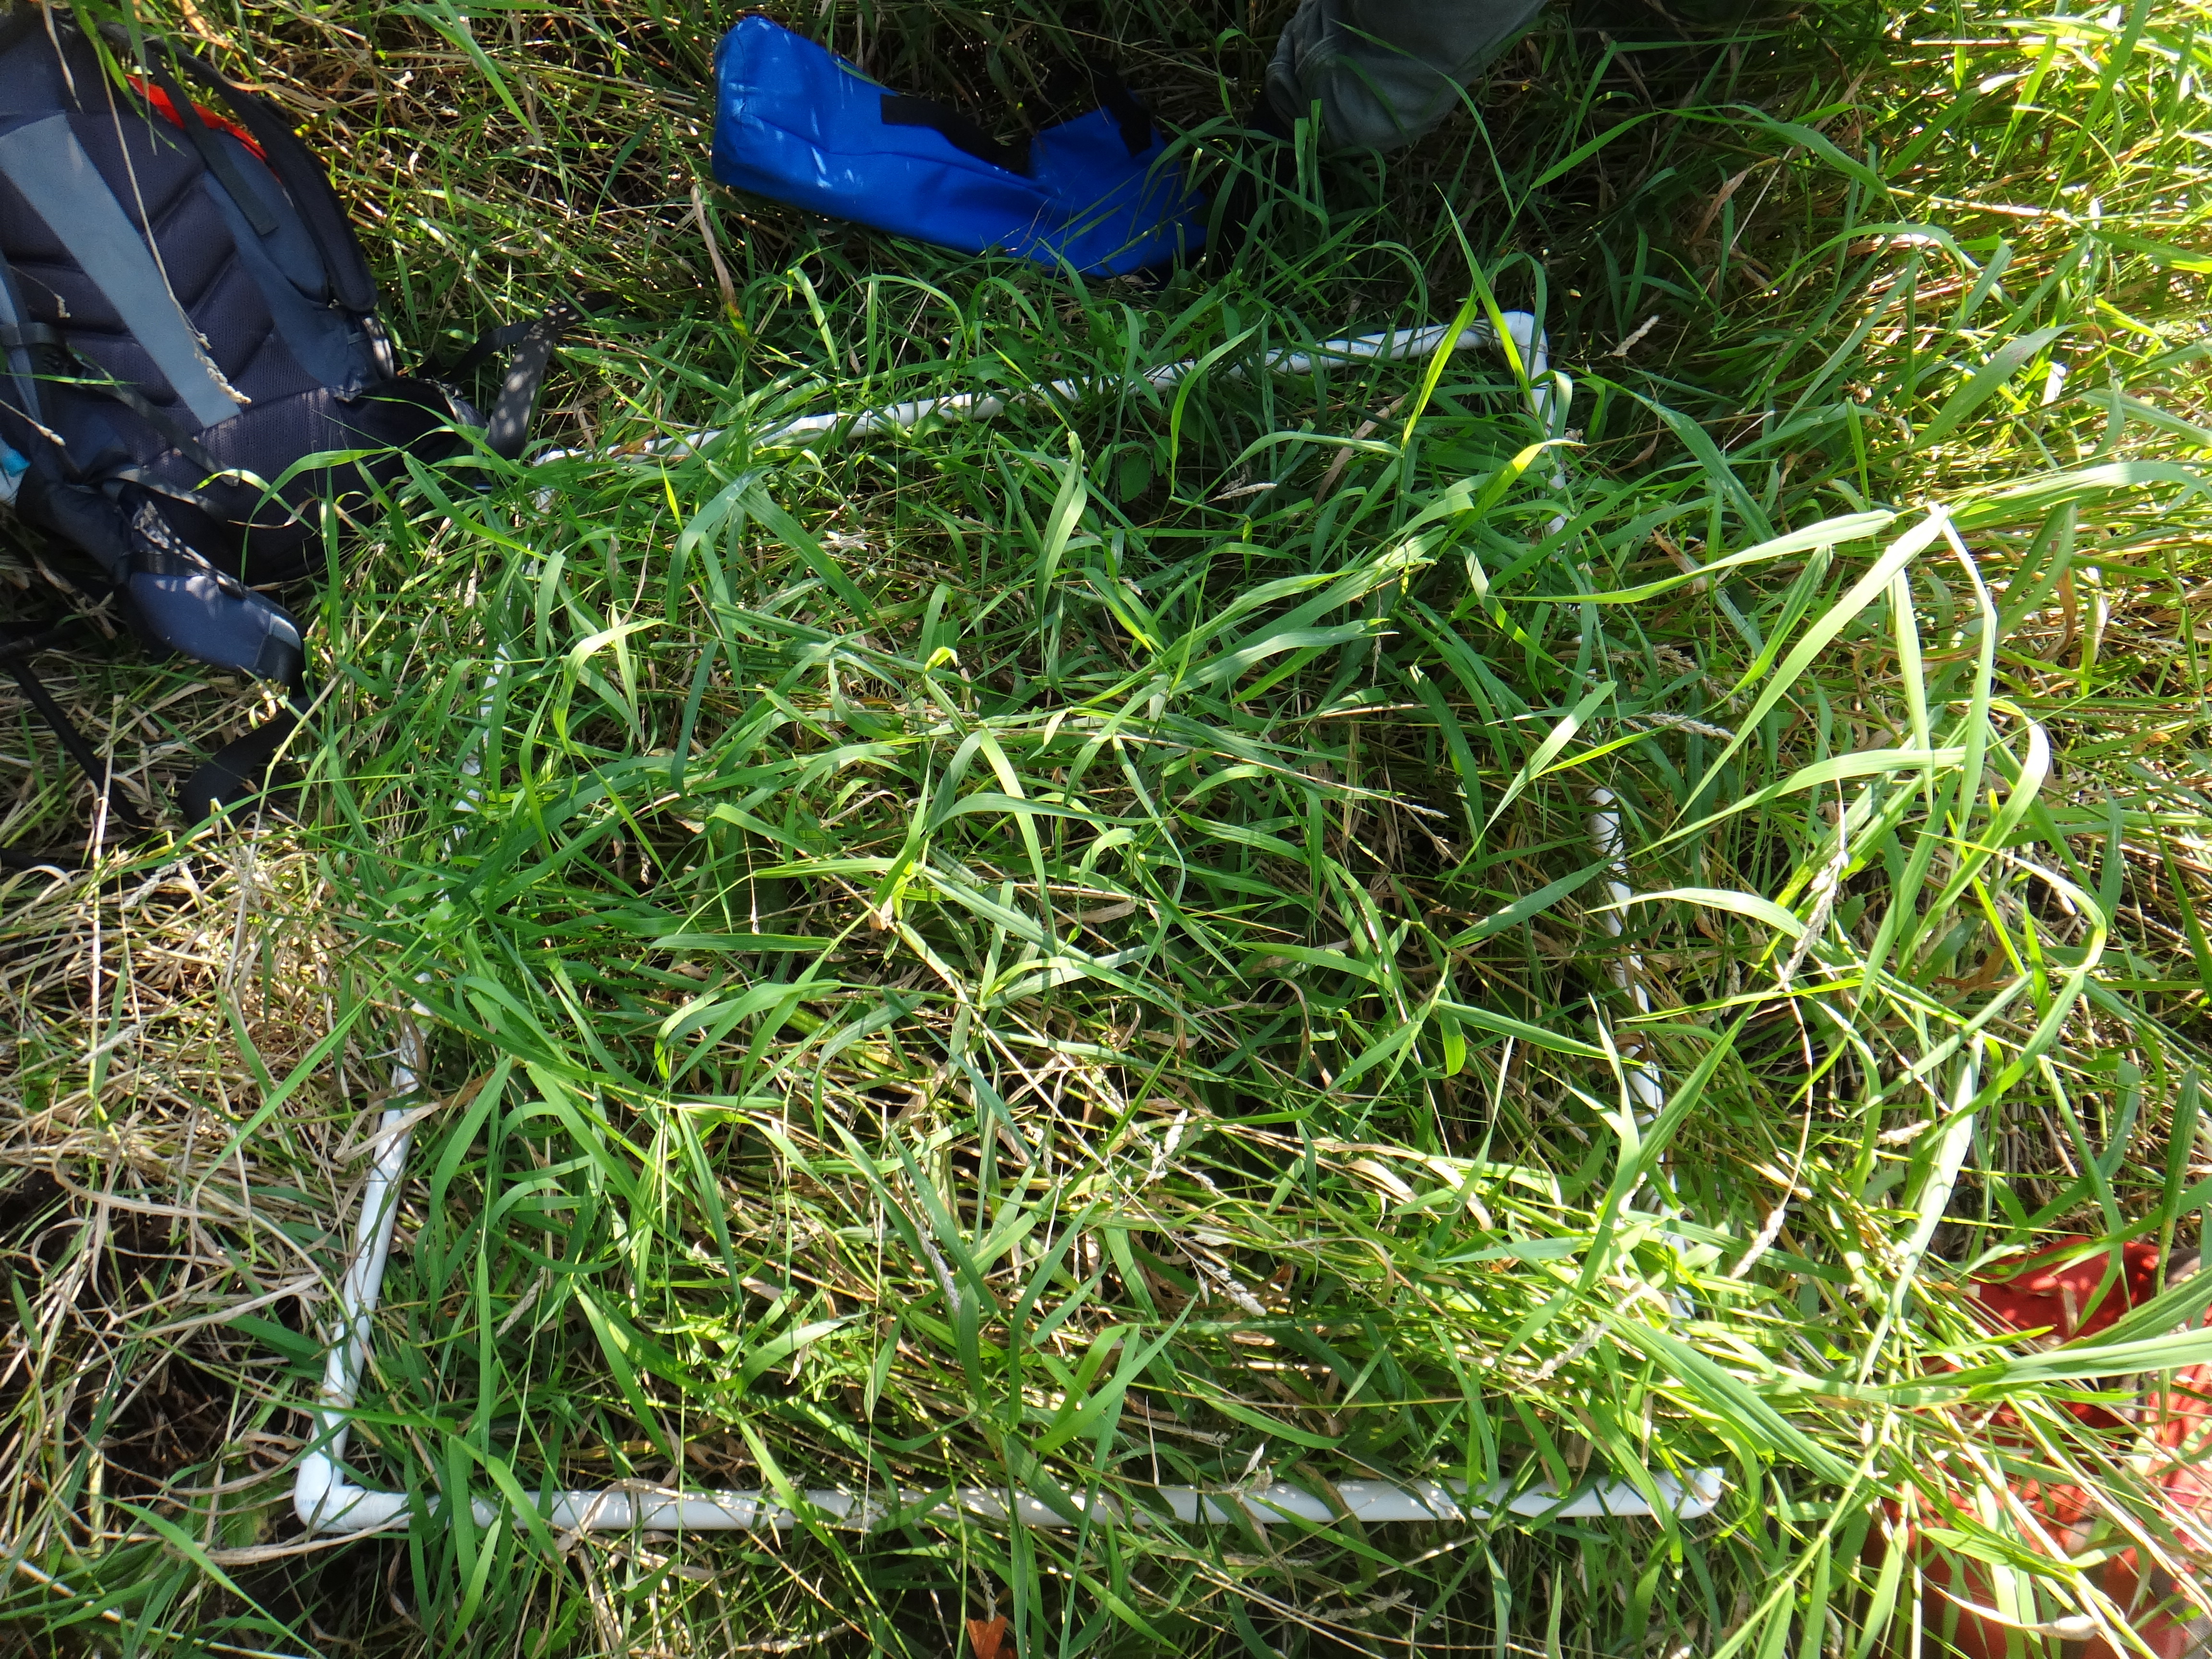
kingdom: Plantae
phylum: Tracheophyta
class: Liliopsida
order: Poales
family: Cyperaceae
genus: Carex
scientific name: Carex lacustris
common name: Common lake sedge
